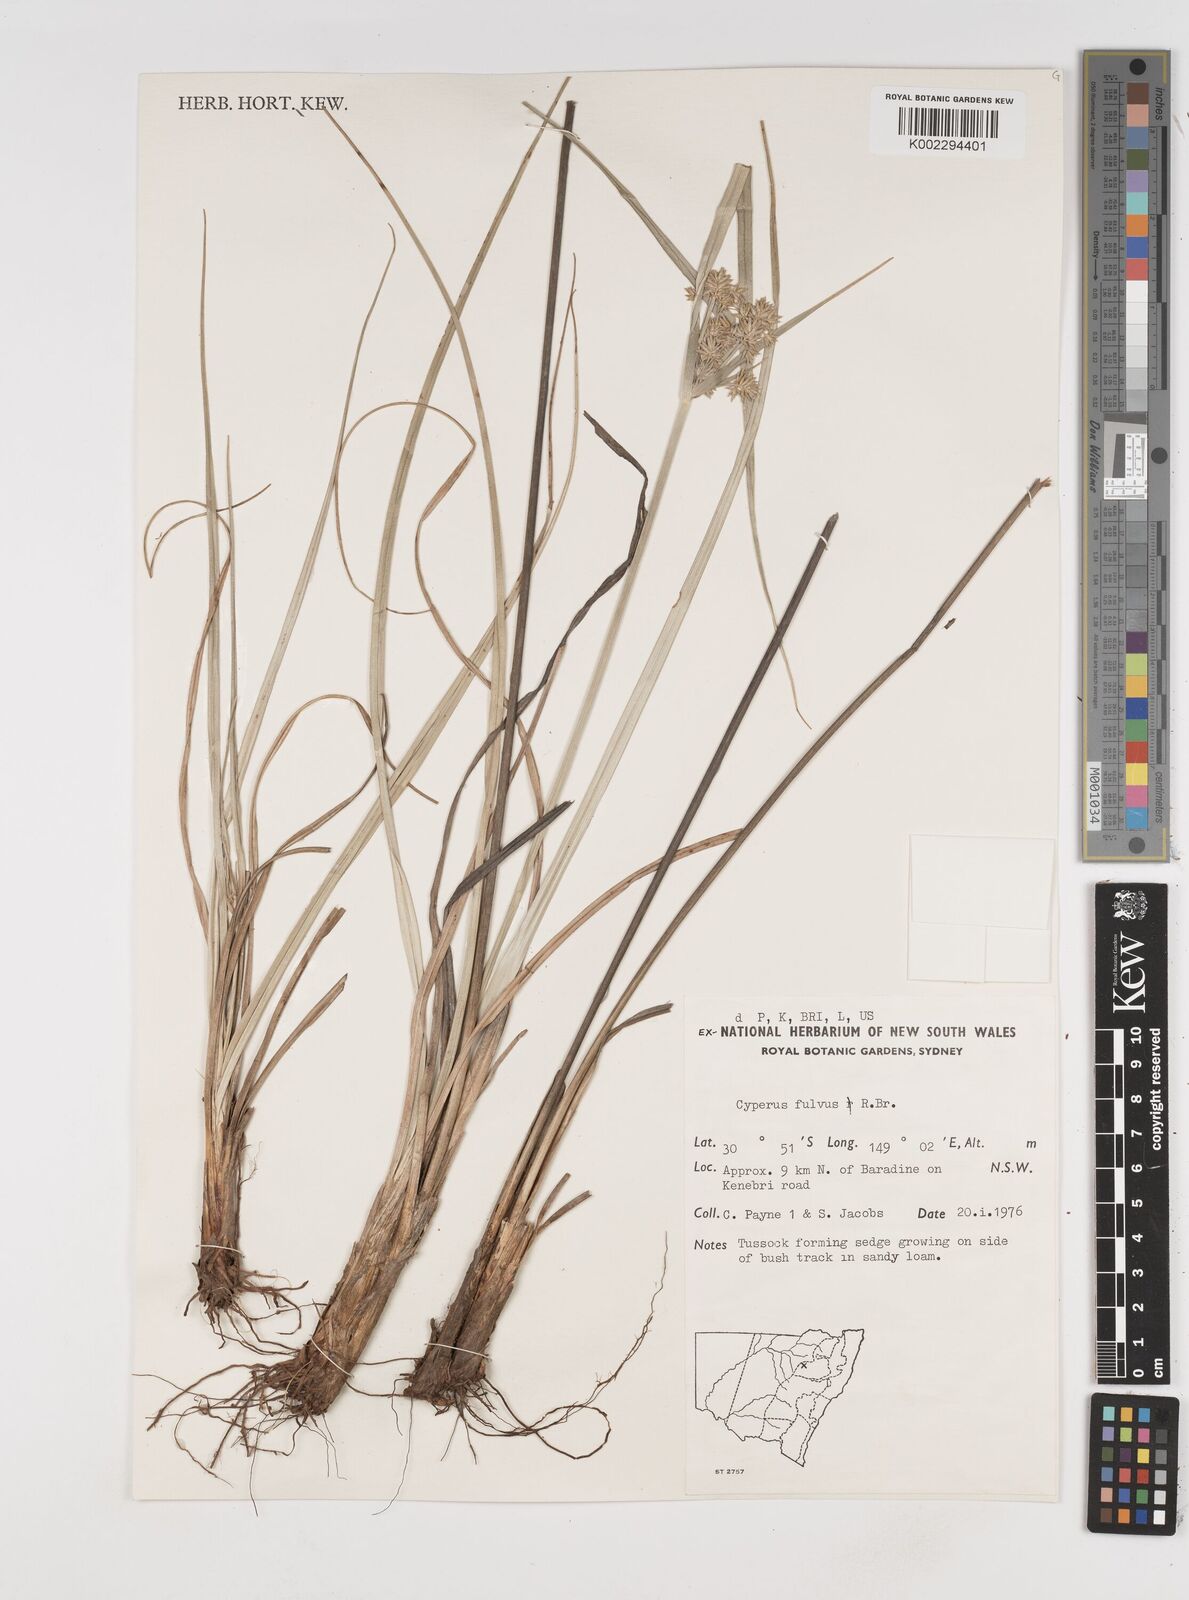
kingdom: Plantae
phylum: Tracheophyta
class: Liliopsida
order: Poales
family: Cyperaceae
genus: Cyperus
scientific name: Cyperus fulvus
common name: Sticky sedge
